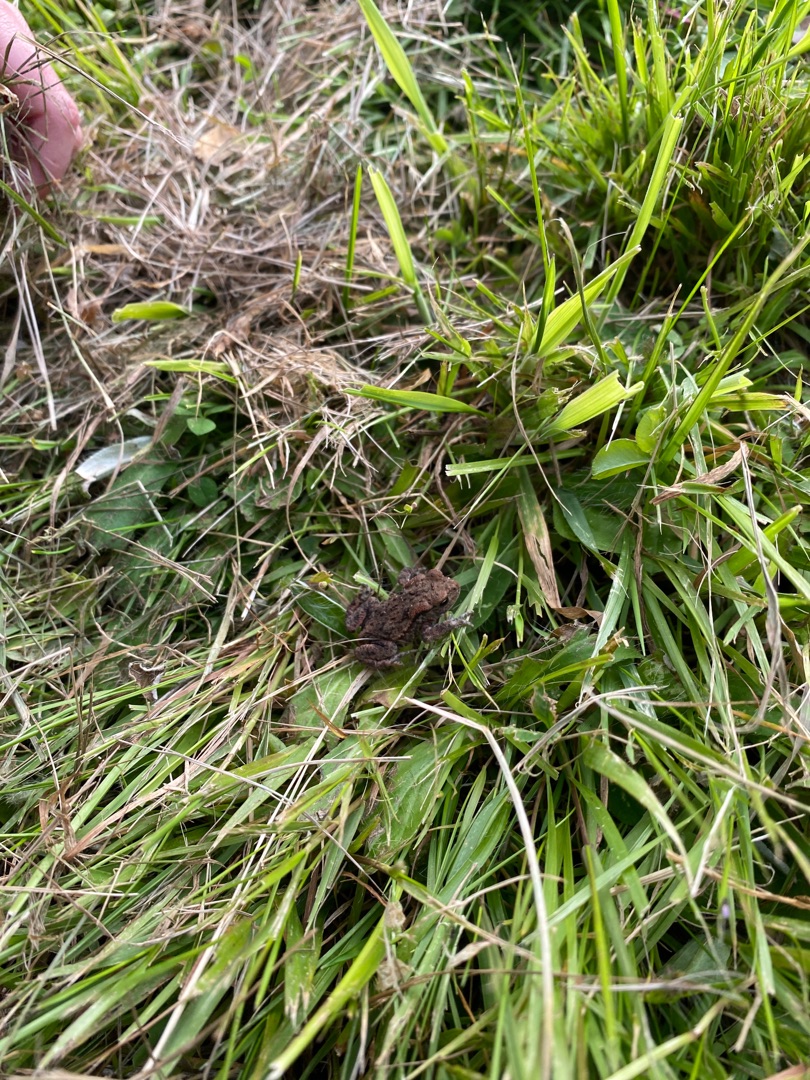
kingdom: Animalia
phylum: Chordata
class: Amphibia
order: Anura
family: Bufonidae
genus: Bufo
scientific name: Bufo bufo
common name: Skrubtudse
